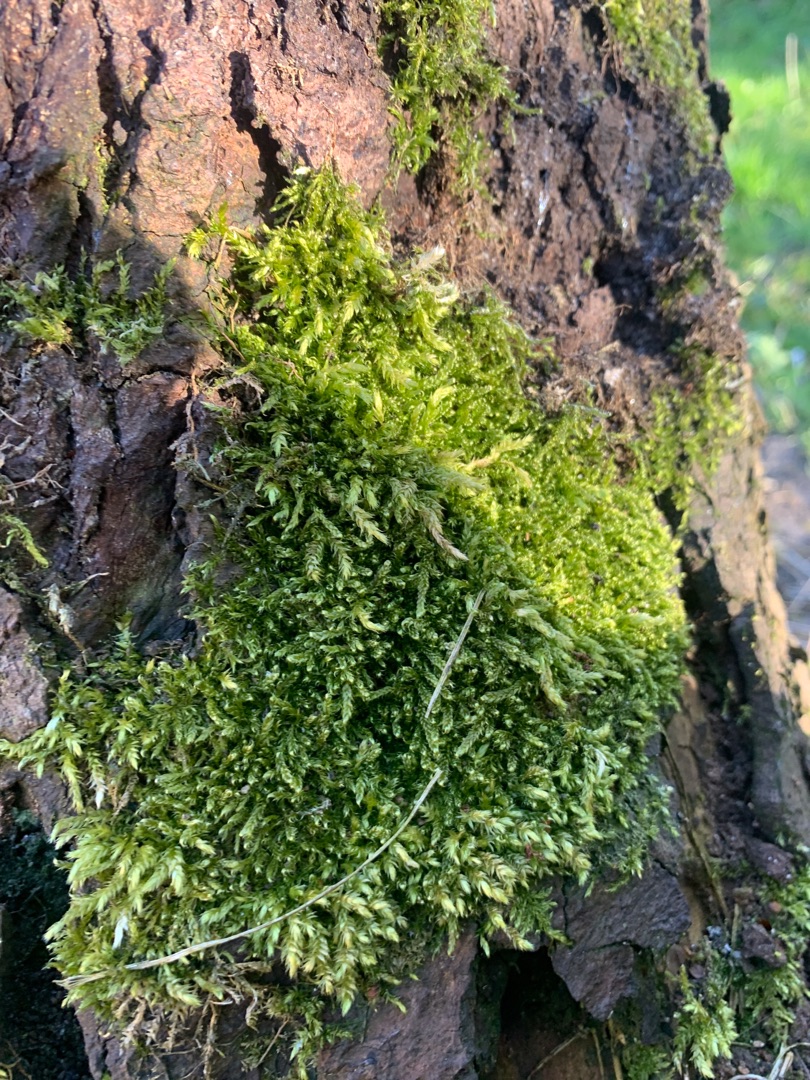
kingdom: Plantae
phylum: Bryophyta
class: Bryopsida
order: Hypnales
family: Hypnaceae
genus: Hypnum
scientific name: Hypnum cupressiforme
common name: Almindelig cypresmos
